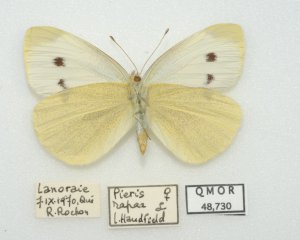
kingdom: Animalia
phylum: Arthropoda
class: Insecta
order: Lepidoptera
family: Pieridae
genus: Pieris
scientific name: Pieris rapae
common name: Cabbage White
